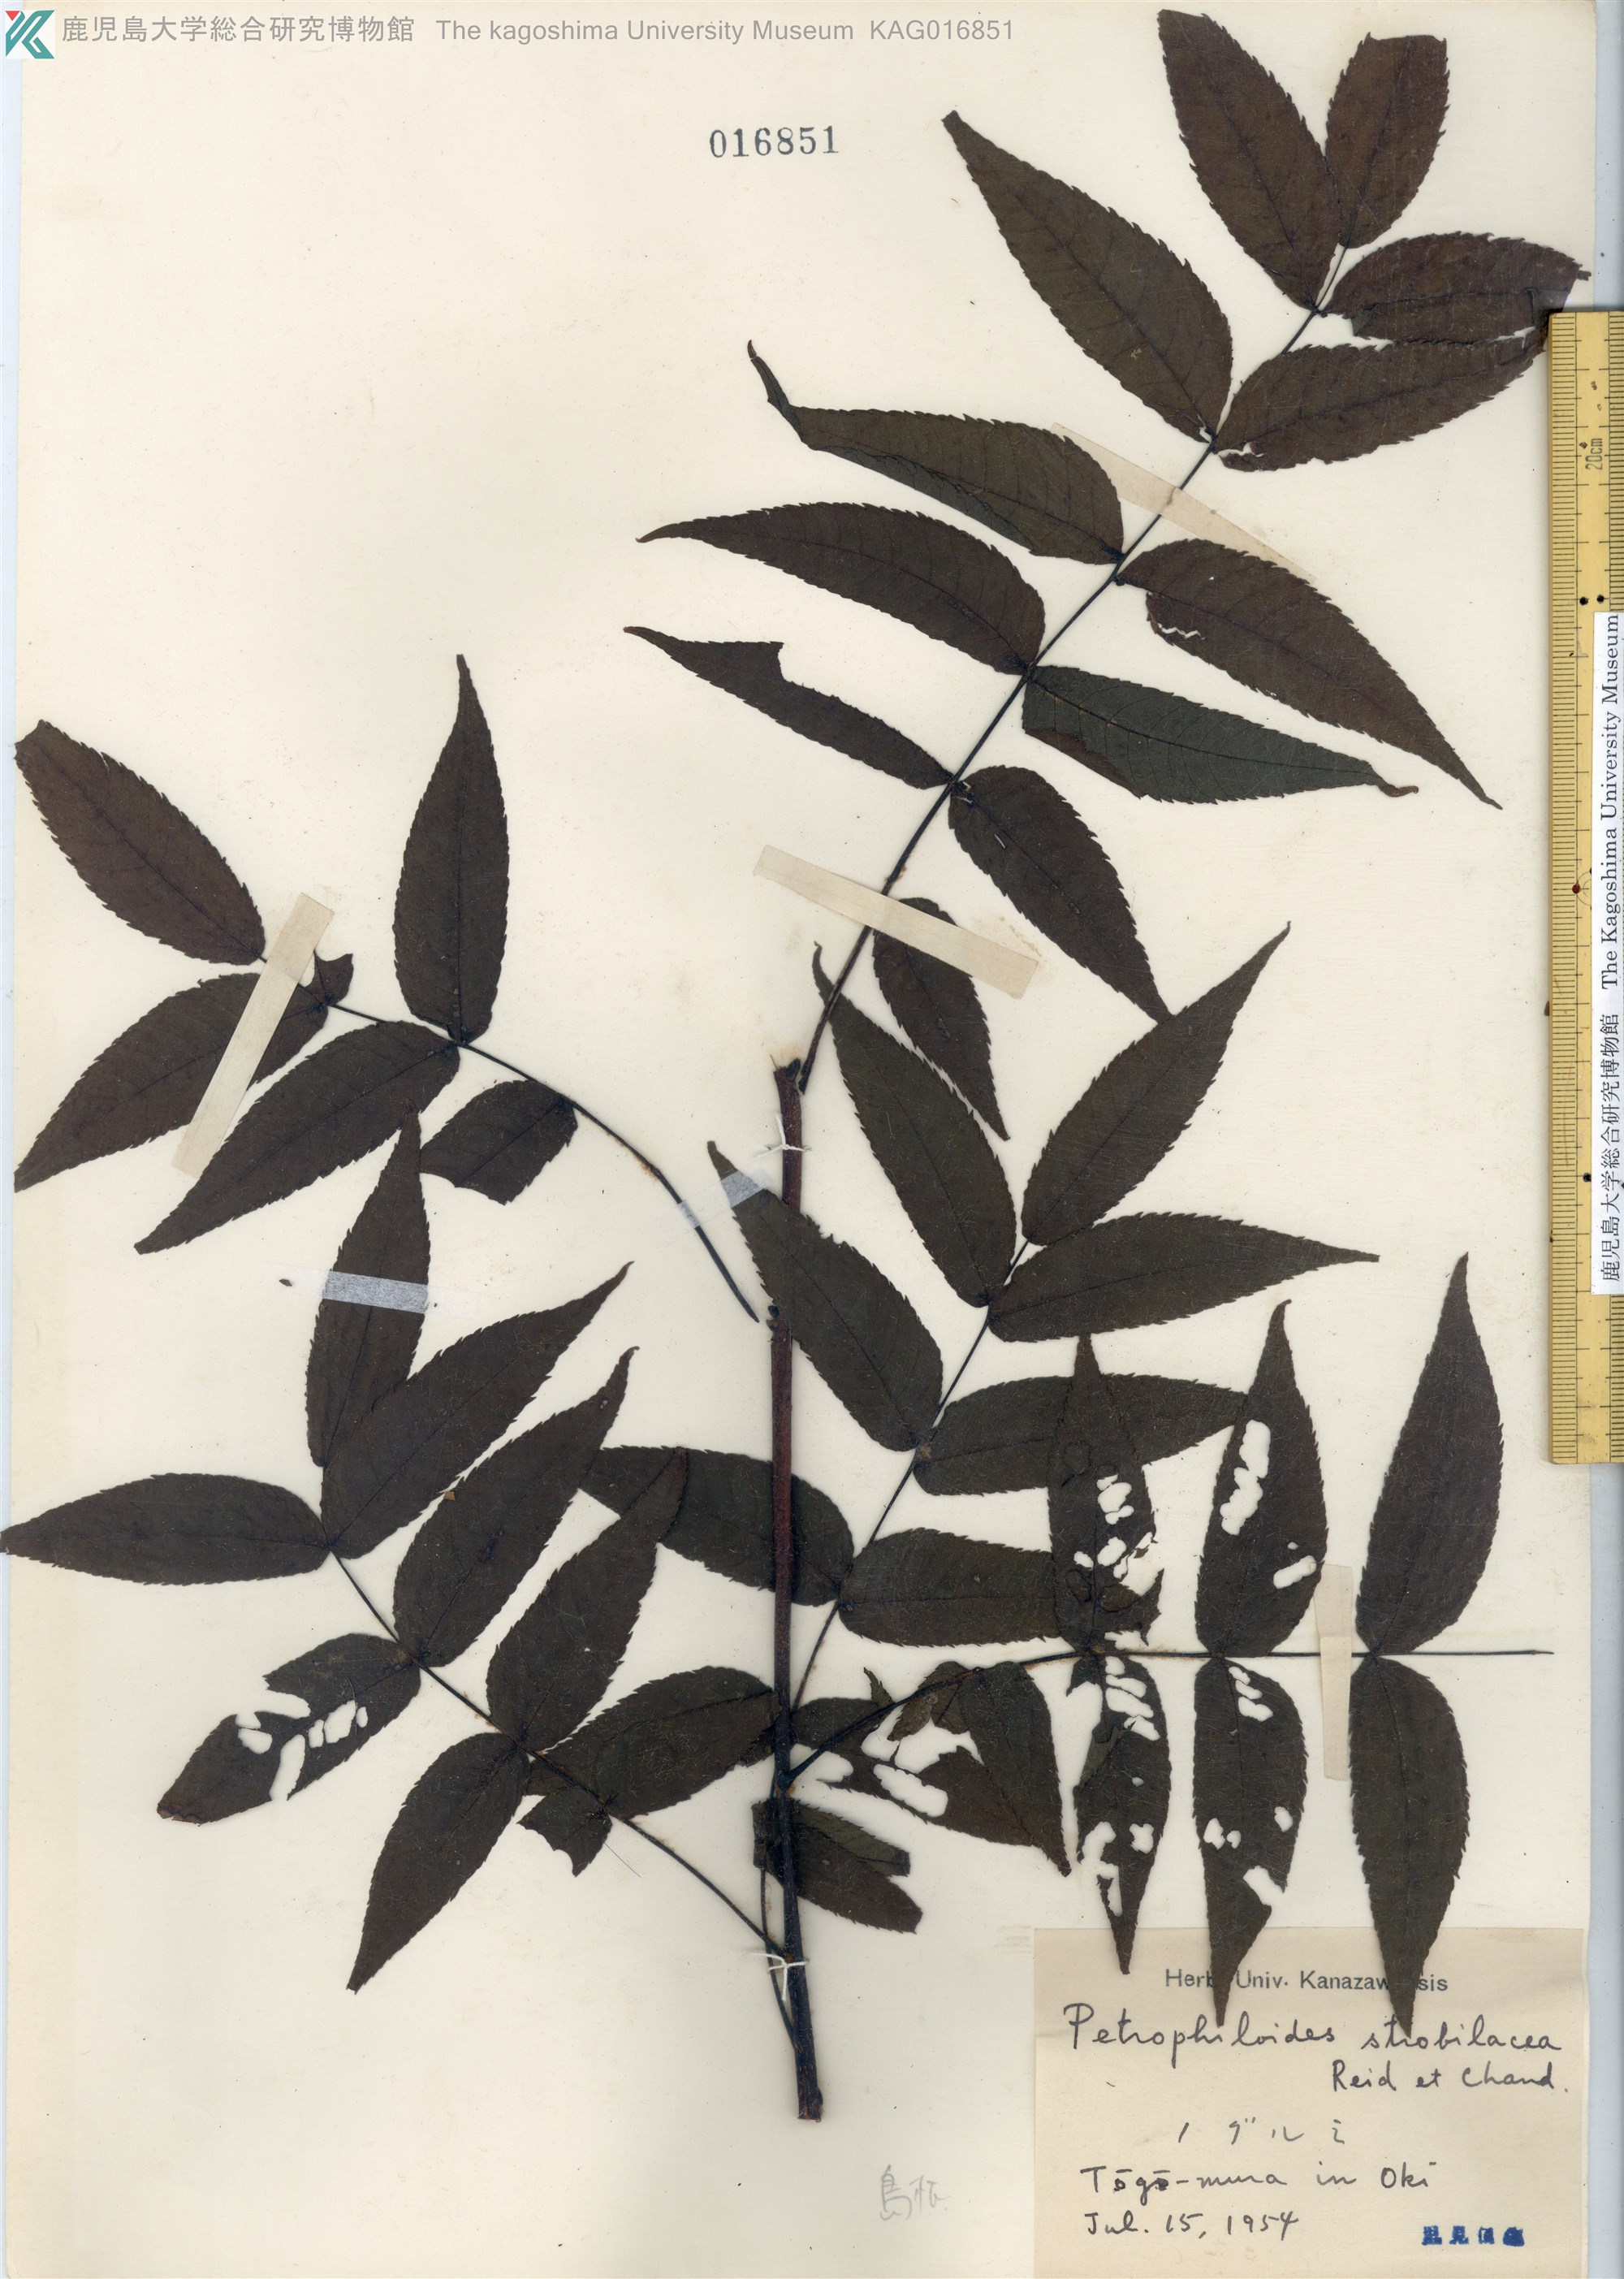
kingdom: Plantae
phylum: Tracheophyta
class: Magnoliopsida
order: Fagales
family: Juglandaceae
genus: Platycarya
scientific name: Platycarya strobilacea
